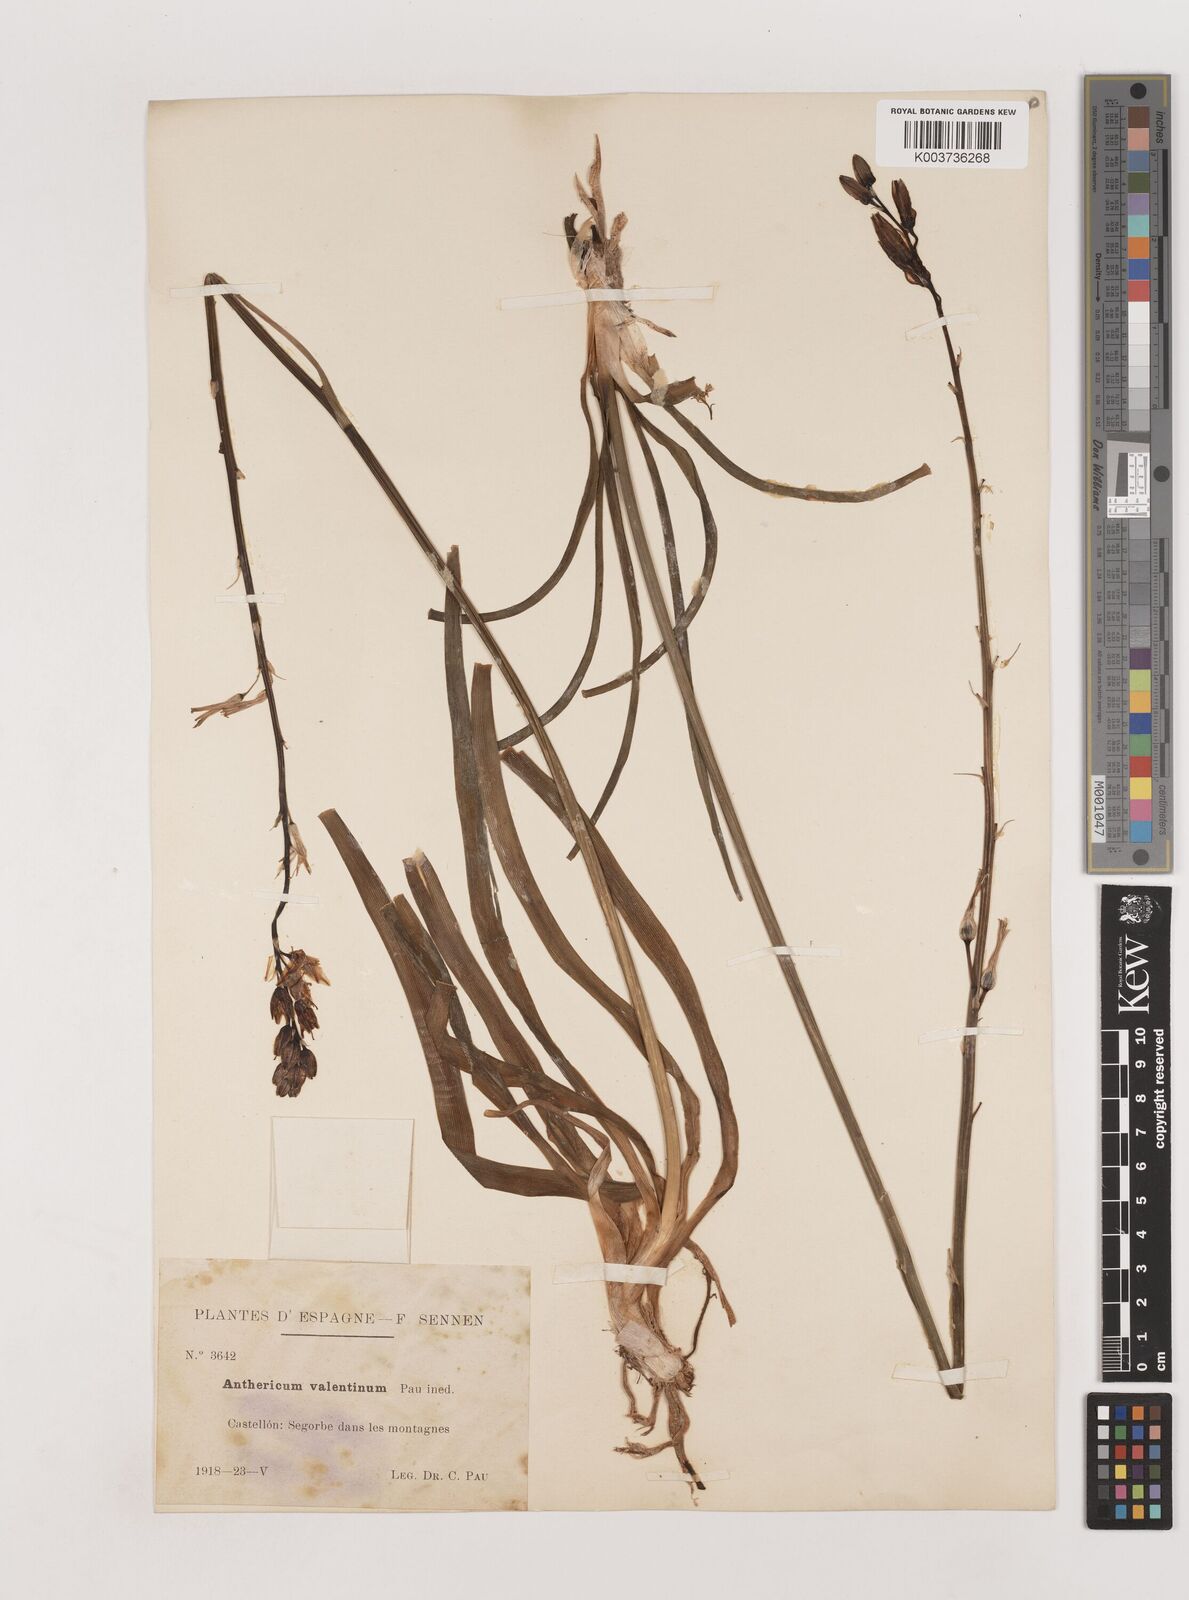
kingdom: Plantae
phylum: Tracheophyta
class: Liliopsida
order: Asparagales
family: Asparagaceae
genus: Anthericum
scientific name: Anthericum
